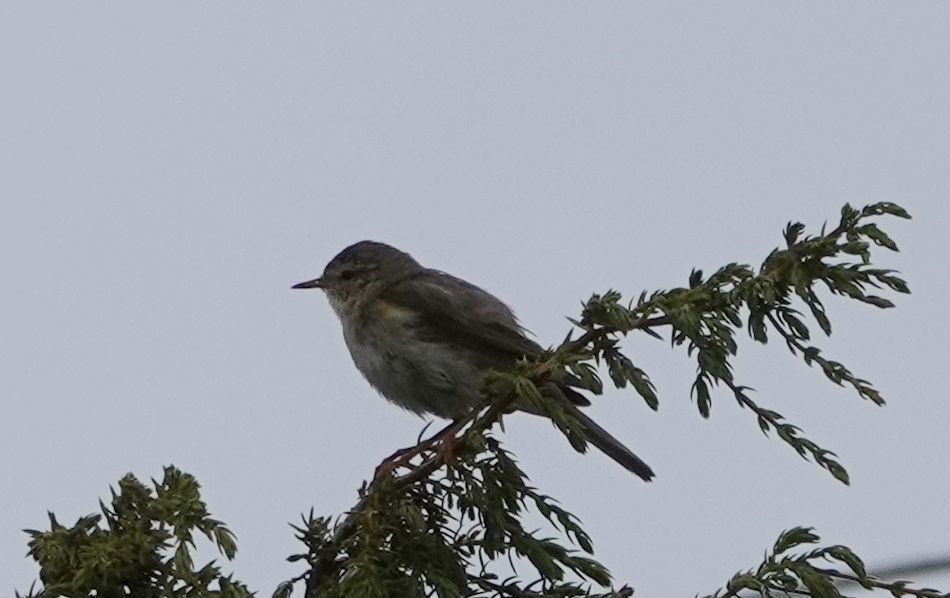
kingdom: Animalia
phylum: Chordata
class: Aves
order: Passeriformes
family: Phylloscopidae
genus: Phylloscopus
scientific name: Phylloscopus trochilus
